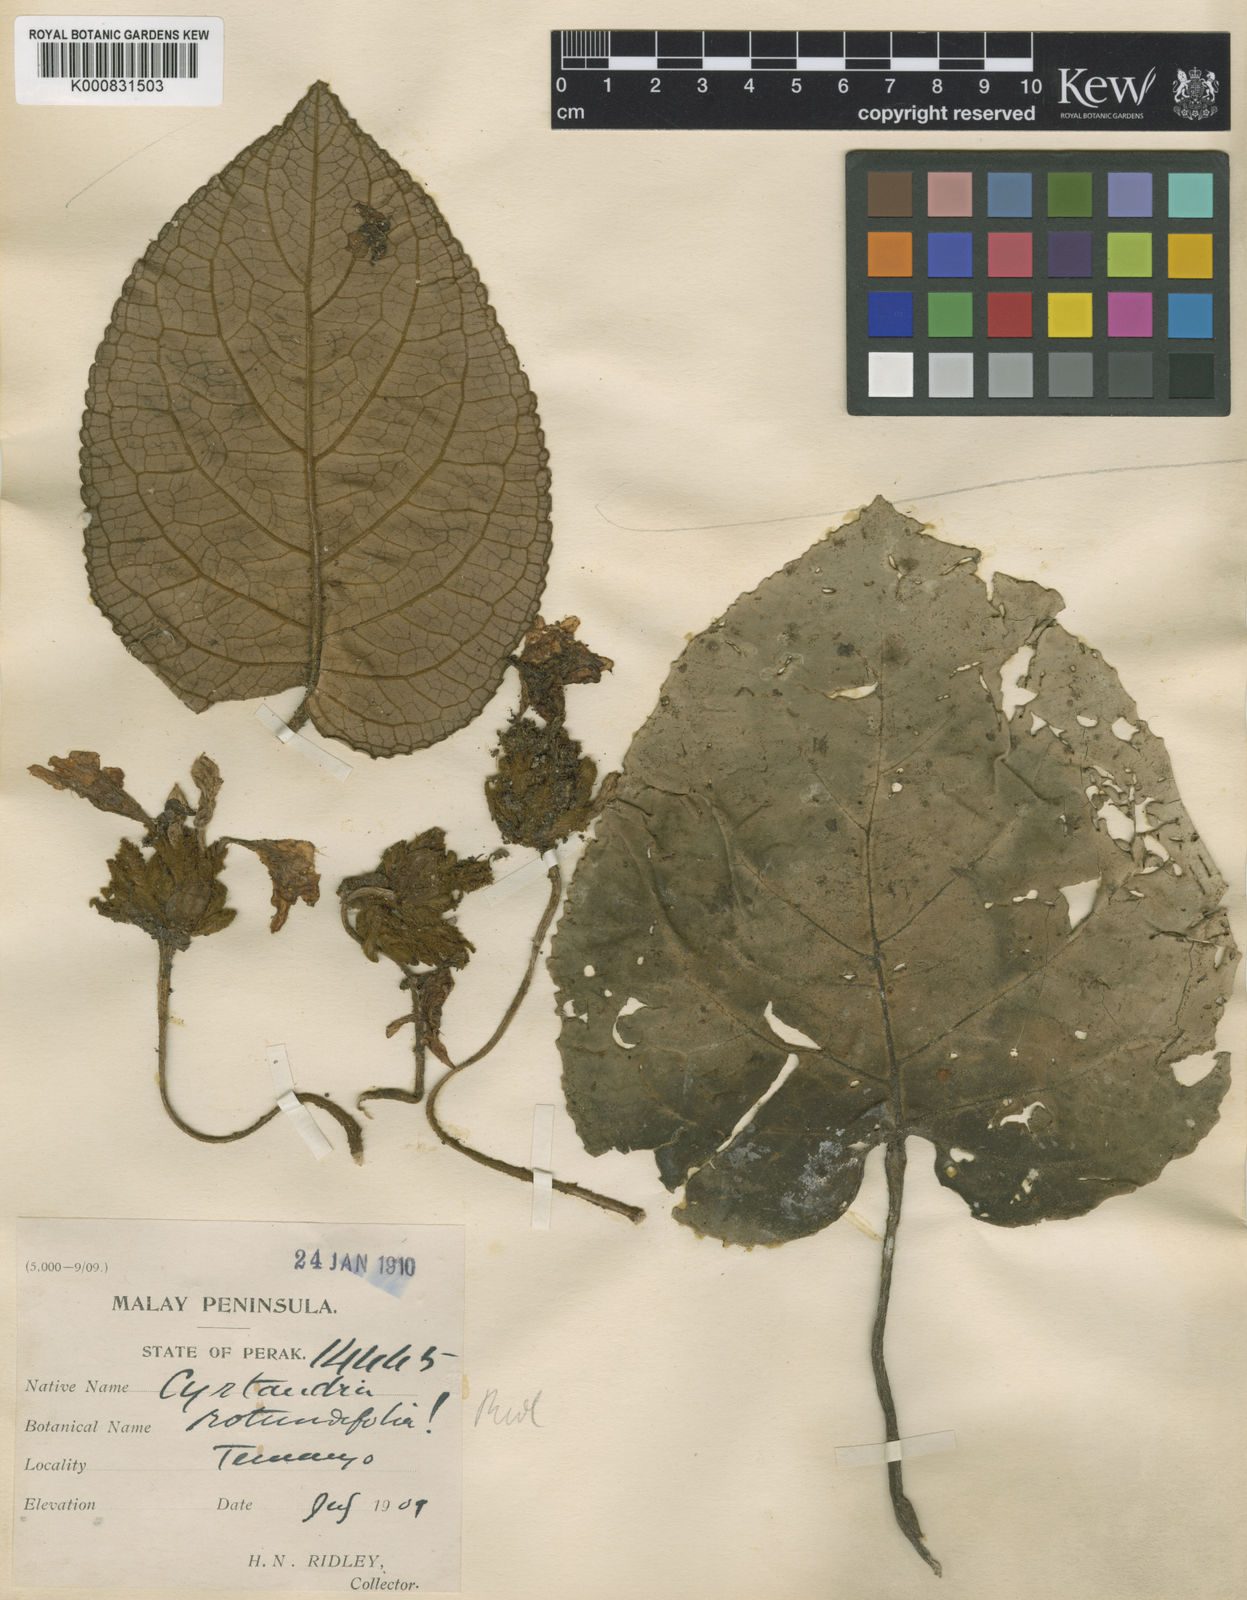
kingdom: Plantae
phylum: Tracheophyta
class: Magnoliopsida
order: Lamiales
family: Gesneriaceae
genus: Cyrtandra
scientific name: Cyrtandra pendula
